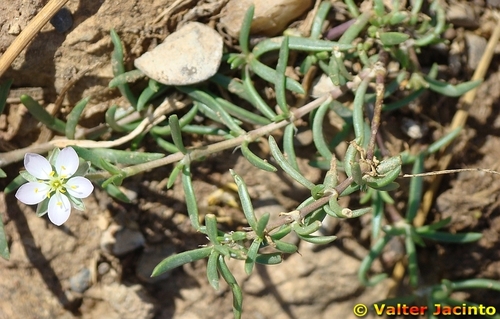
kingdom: Plantae
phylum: Tracheophyta
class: Magnoliopsida
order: Caryophyllales
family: Caryophyllaceae
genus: Spergularia
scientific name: Spergularia media
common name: Greater sea-spurrey
